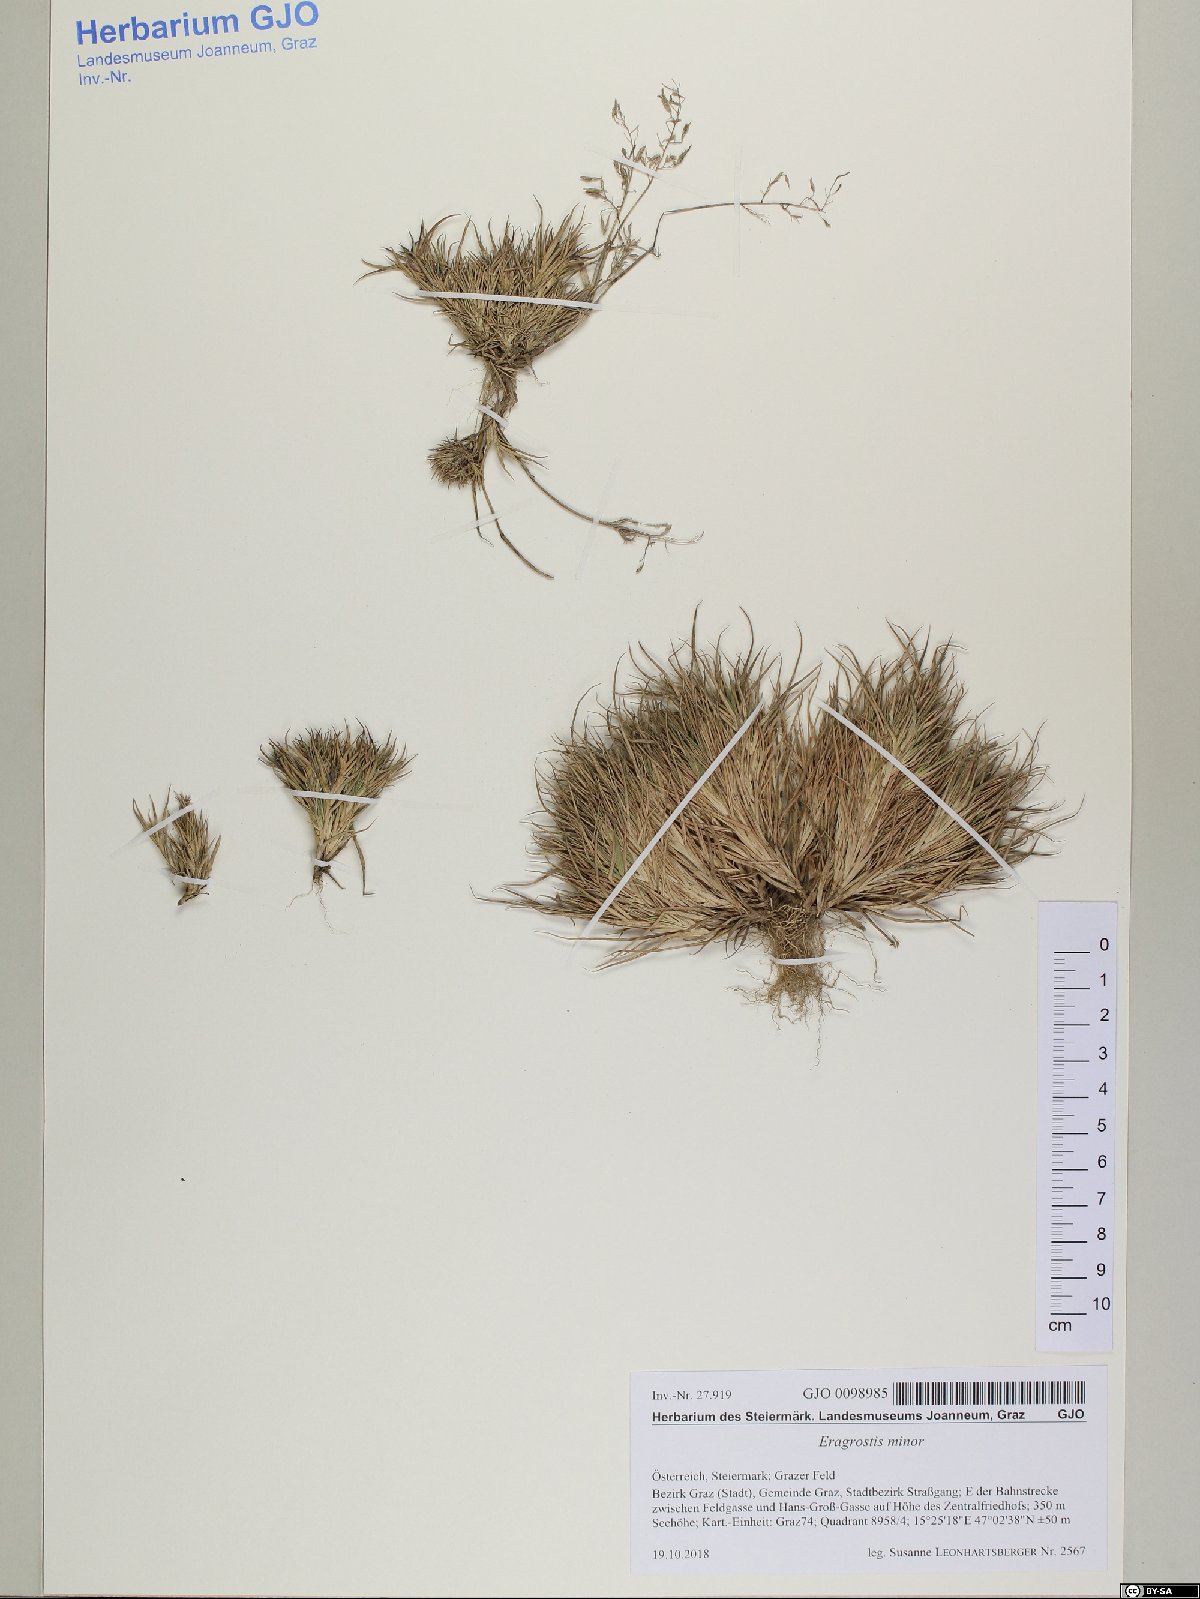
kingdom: Plantae
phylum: Tracheophyta
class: Liliopsida
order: Poales
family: Poaceae
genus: Eragrostis
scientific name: Eragrostis minor
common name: Small love-grass
